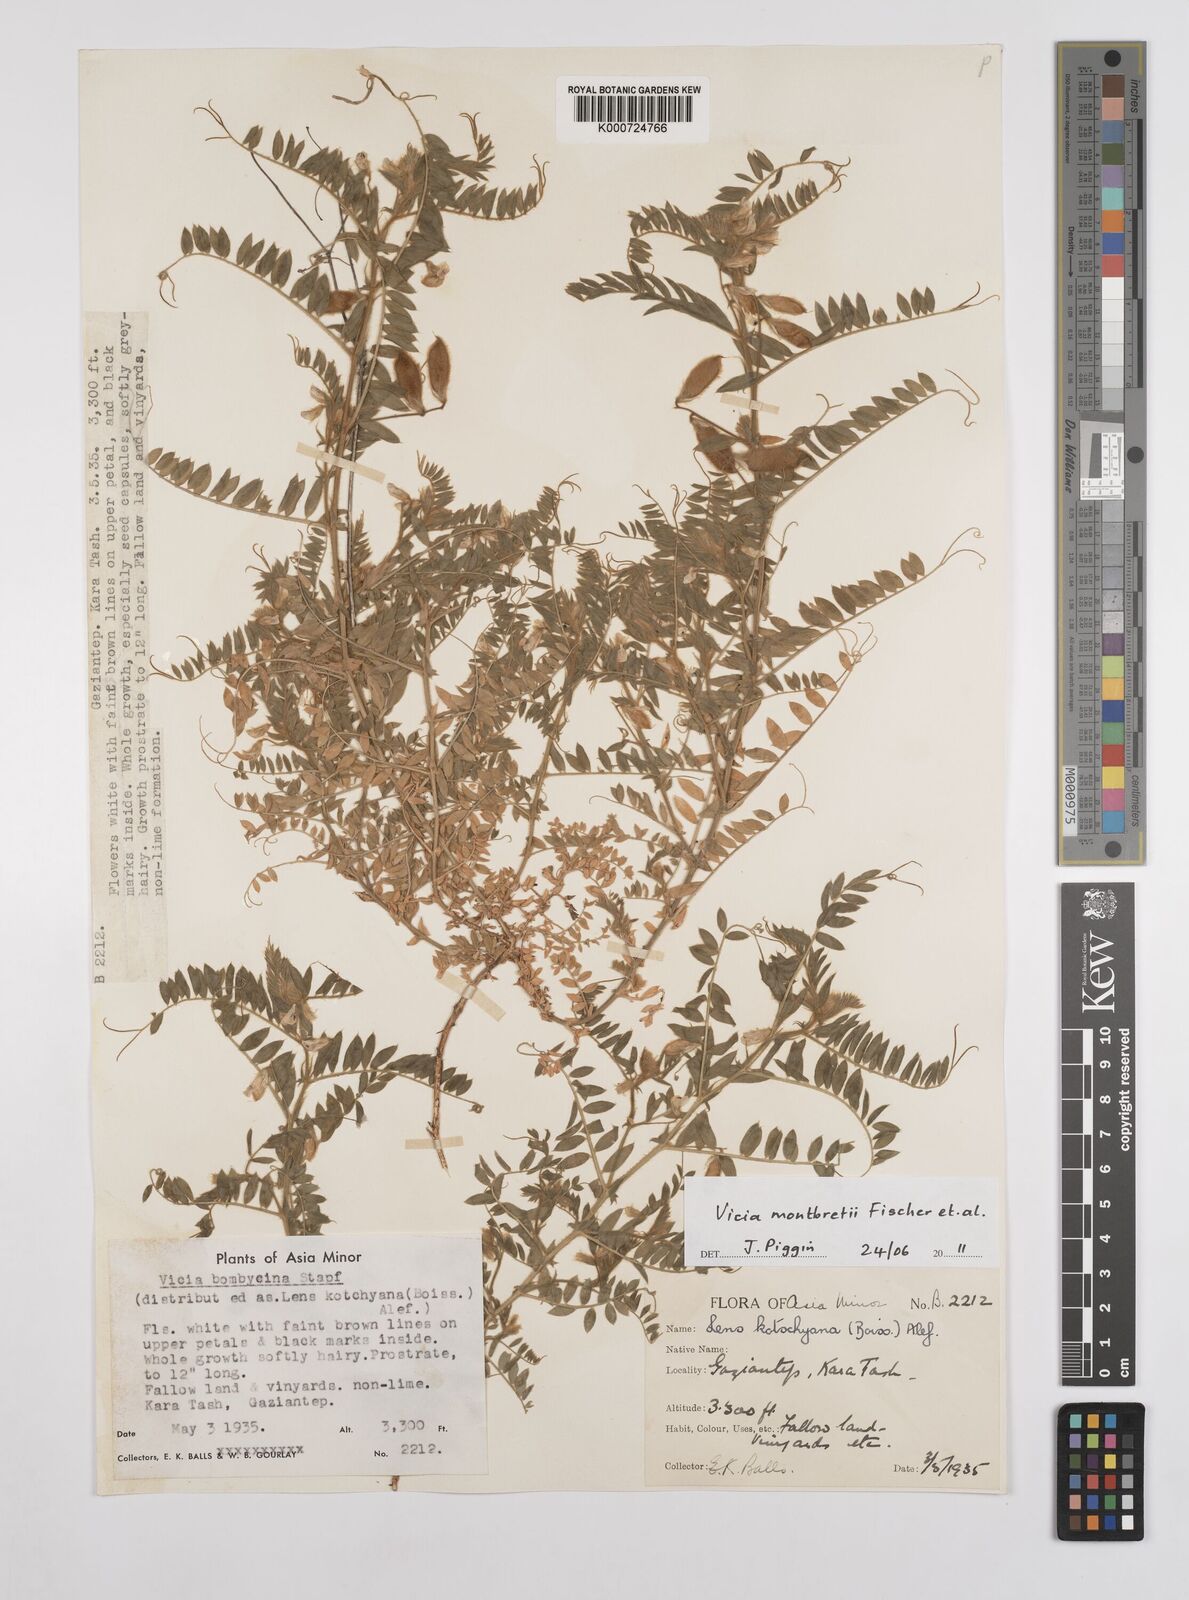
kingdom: Plantae
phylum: Tracheophyta
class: Magnoliopsida
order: Fabales
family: Fabaceae
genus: Vicia
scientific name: Vicia montbretii
